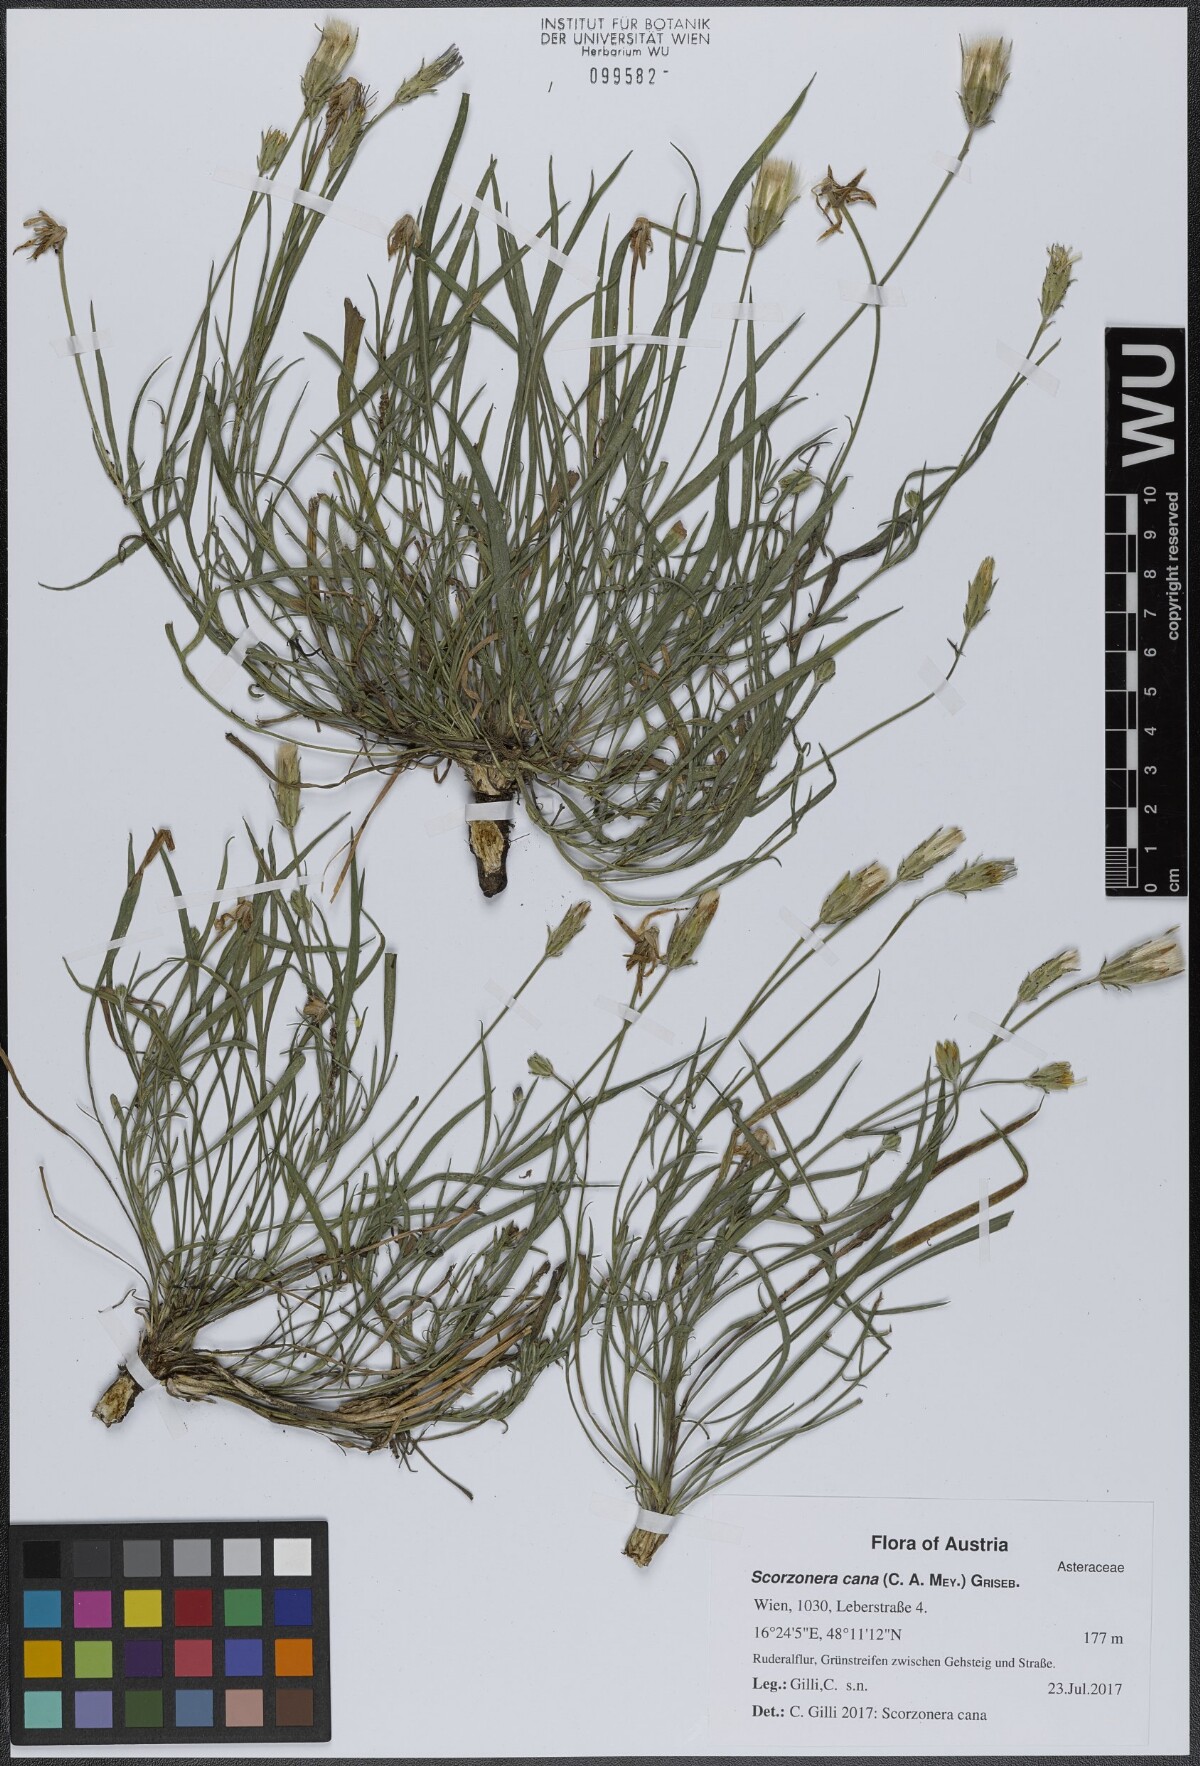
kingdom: Plantae
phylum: Tracheophyta
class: Magnoliopsida
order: Asterales
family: Asteraceae
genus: Scorzonera
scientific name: Scorzonera cana
